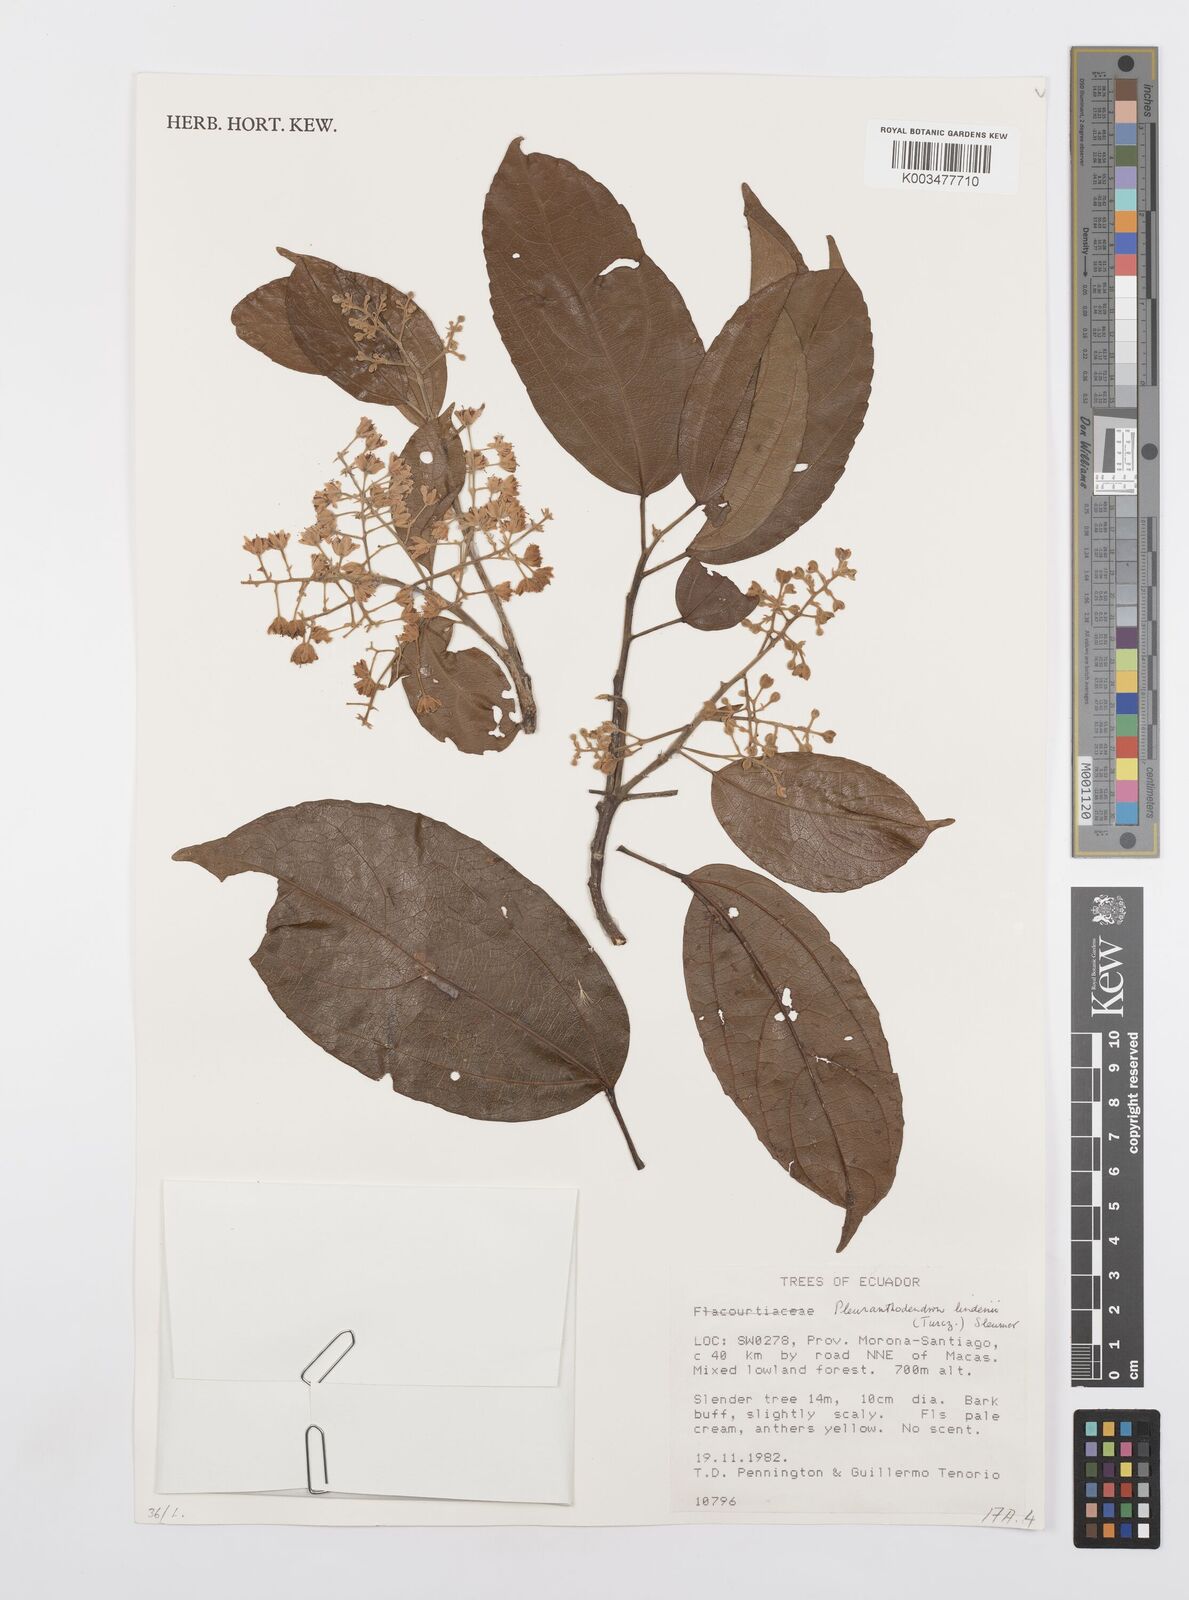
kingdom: Plantae
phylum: Tracheophyta
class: Magnoliopsida
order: Malpighiales
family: Salicaceae
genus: Pleuranthodendron
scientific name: Pleuranthodendron lindenii
